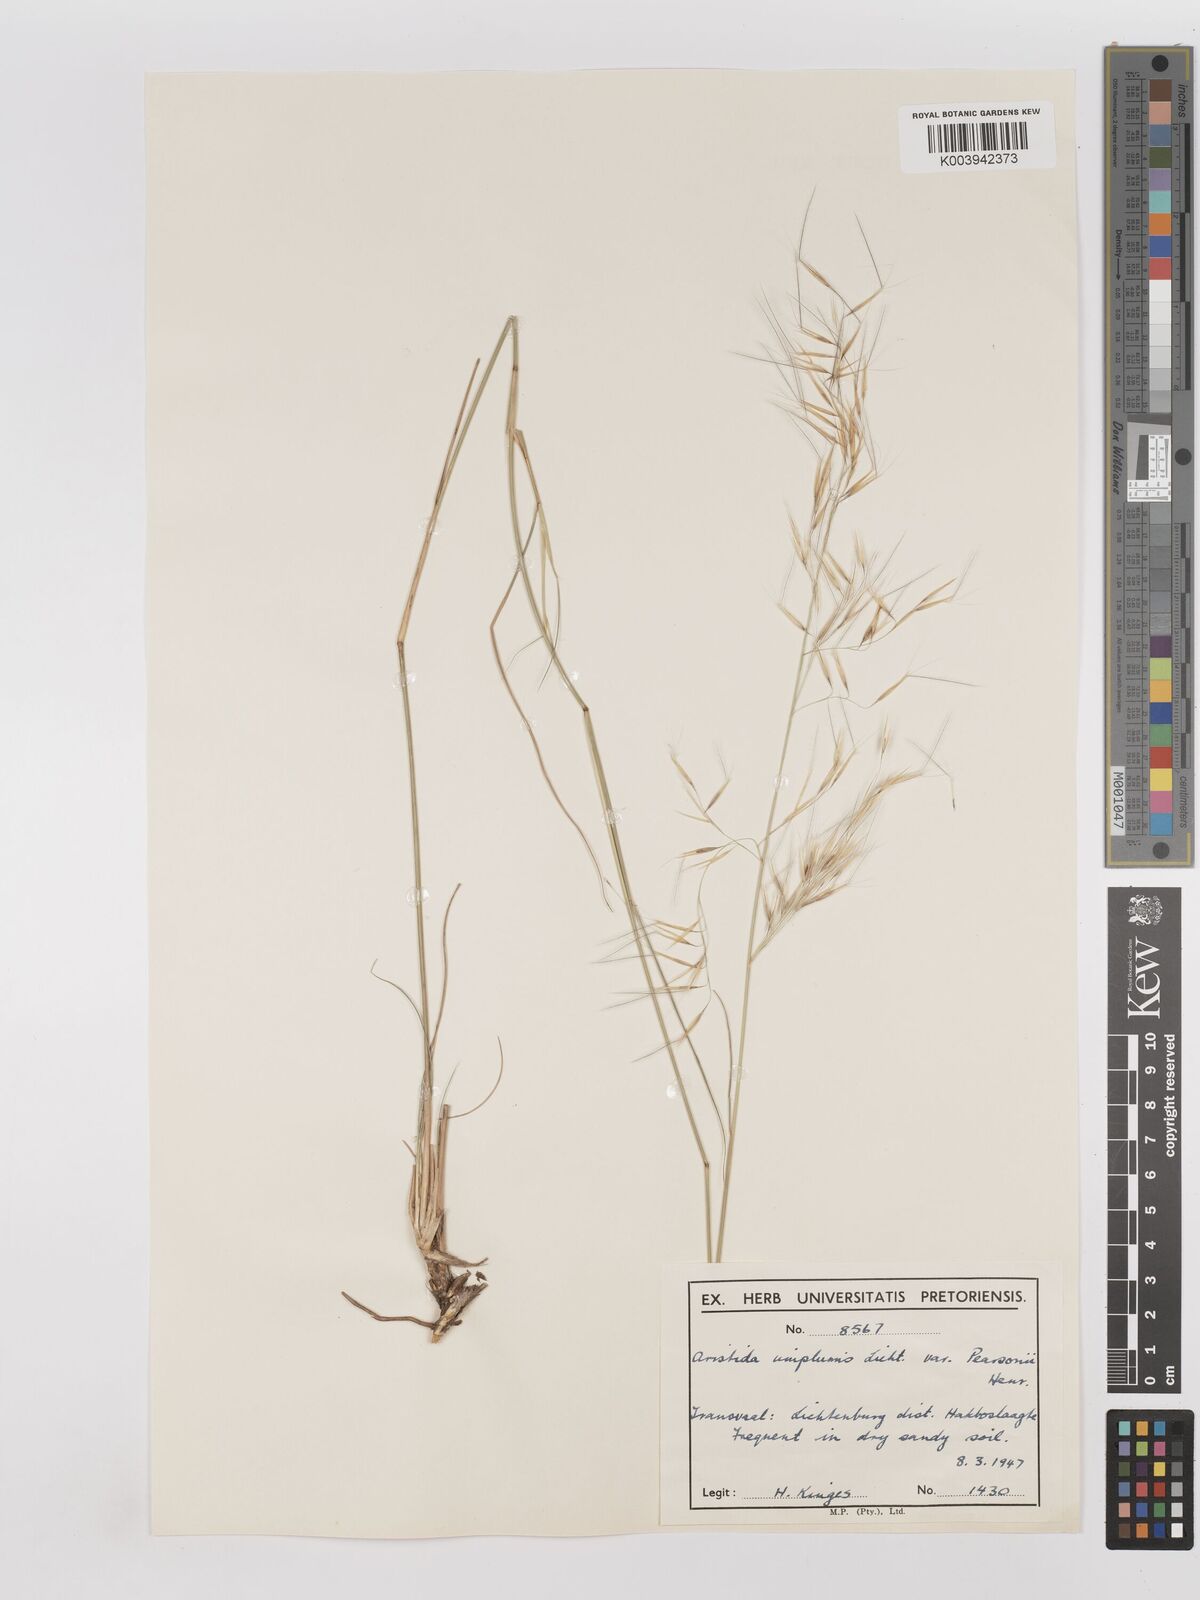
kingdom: Plantae
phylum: Tracheophyta
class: Liliopsida
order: Poales
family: Poaceae
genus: Stipagrostis
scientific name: Stipagrostis uniplumis
